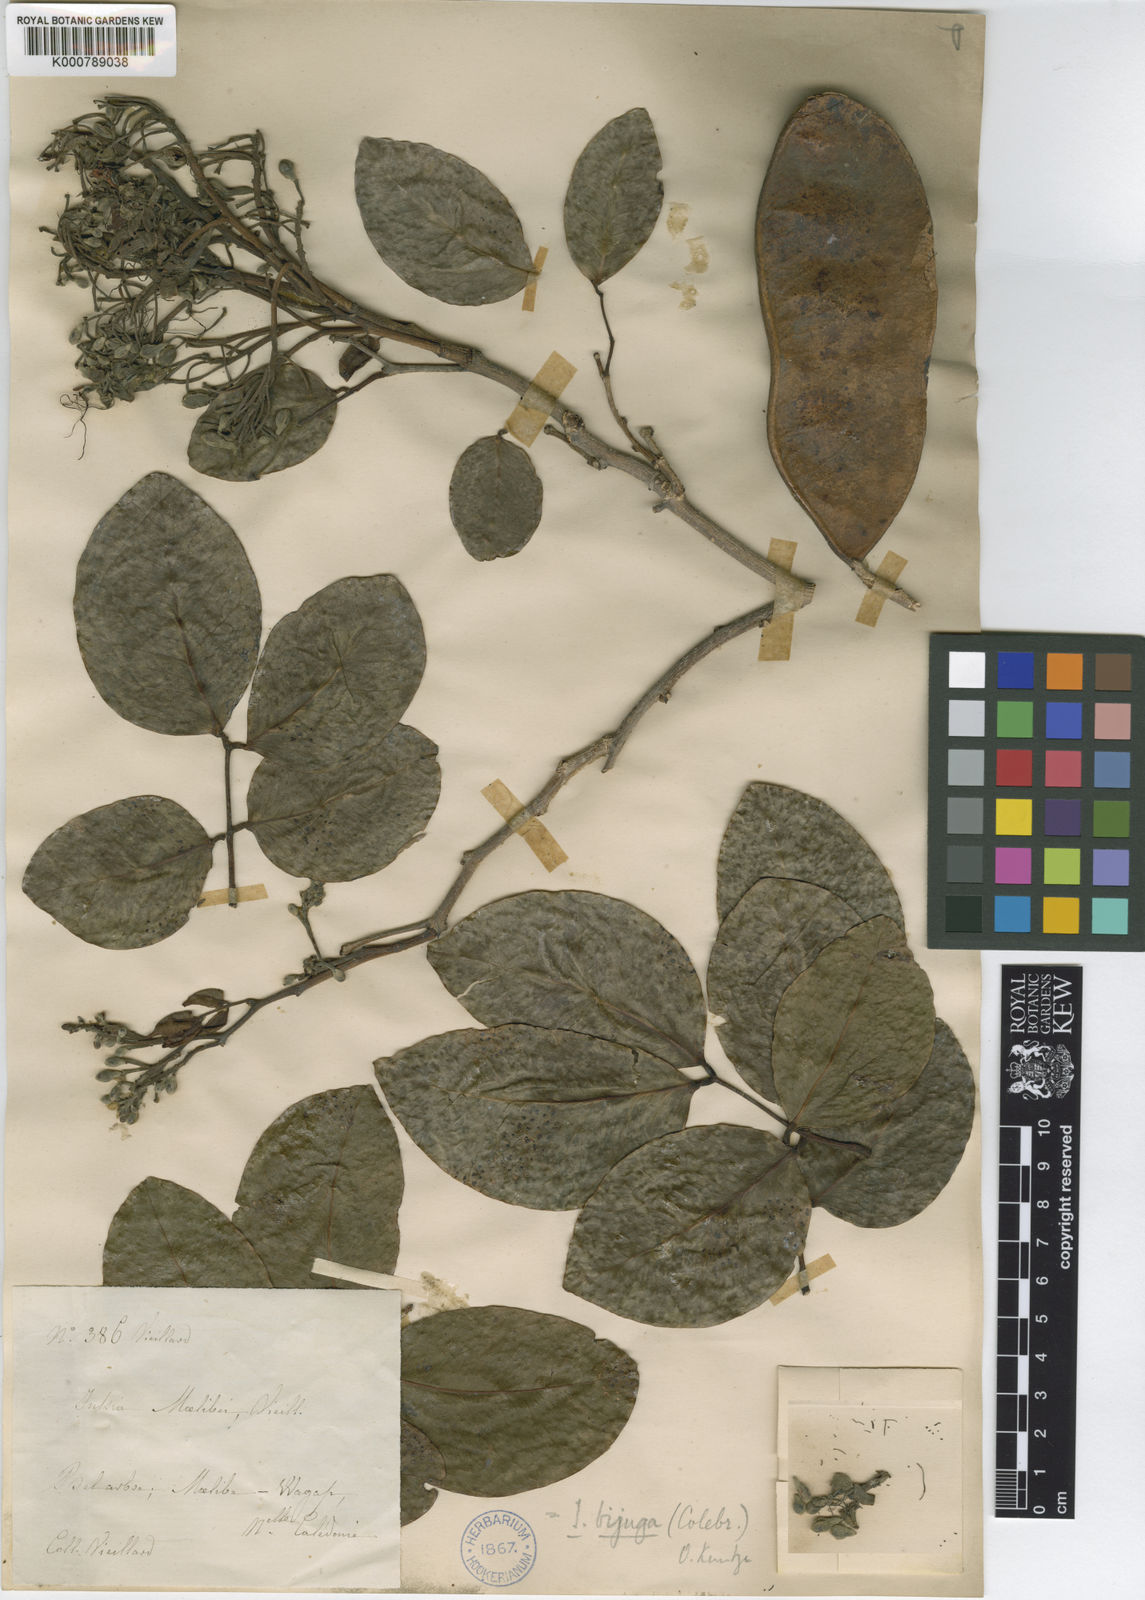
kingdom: Plantae
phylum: Tracheophyta
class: Magnoliopsida
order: Fabales
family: Fabaceae
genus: Intsia
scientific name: Intsia bijuga
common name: Moluccan ironwood
